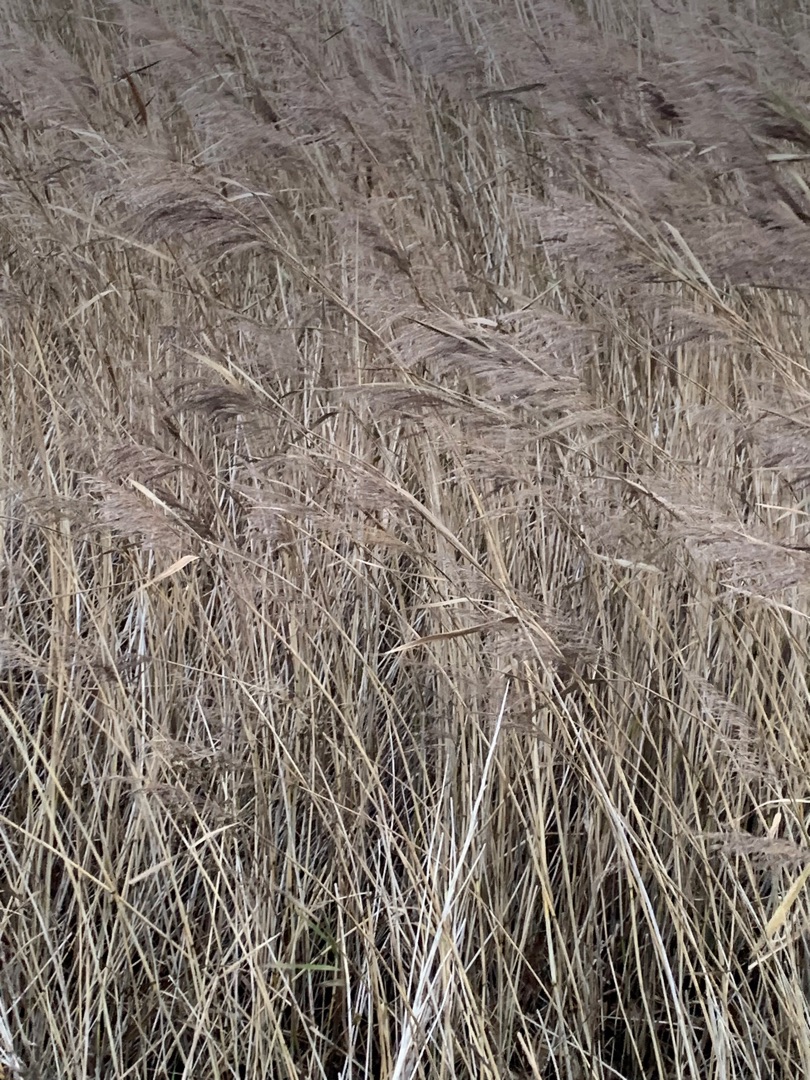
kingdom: Plantae
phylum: Tracheophyta
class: Liliopsida
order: Poales
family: Poaceae
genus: Phragmites
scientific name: Phragmites australis
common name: Tagrør
